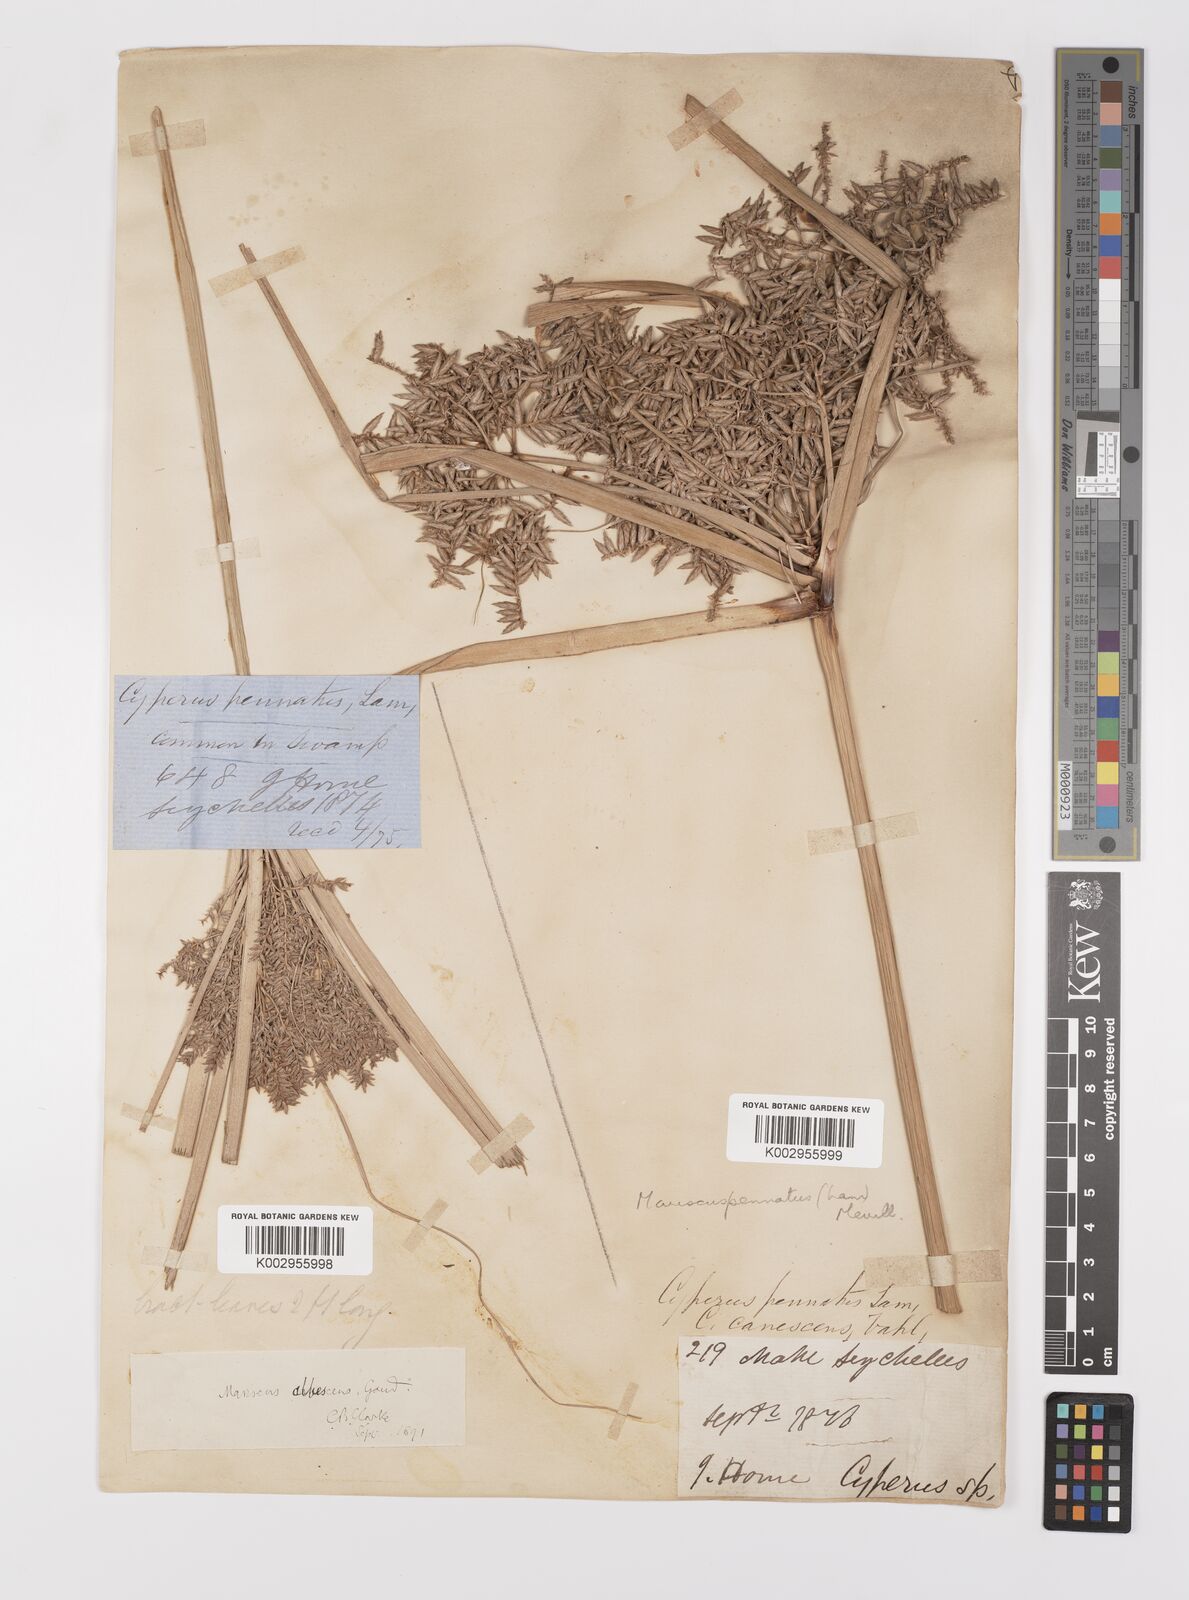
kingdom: Plantae
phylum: Tracheophyta
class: Liliopsida
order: Poales
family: Cyperaceae
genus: Cyperus
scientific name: Cyperus javanicus
